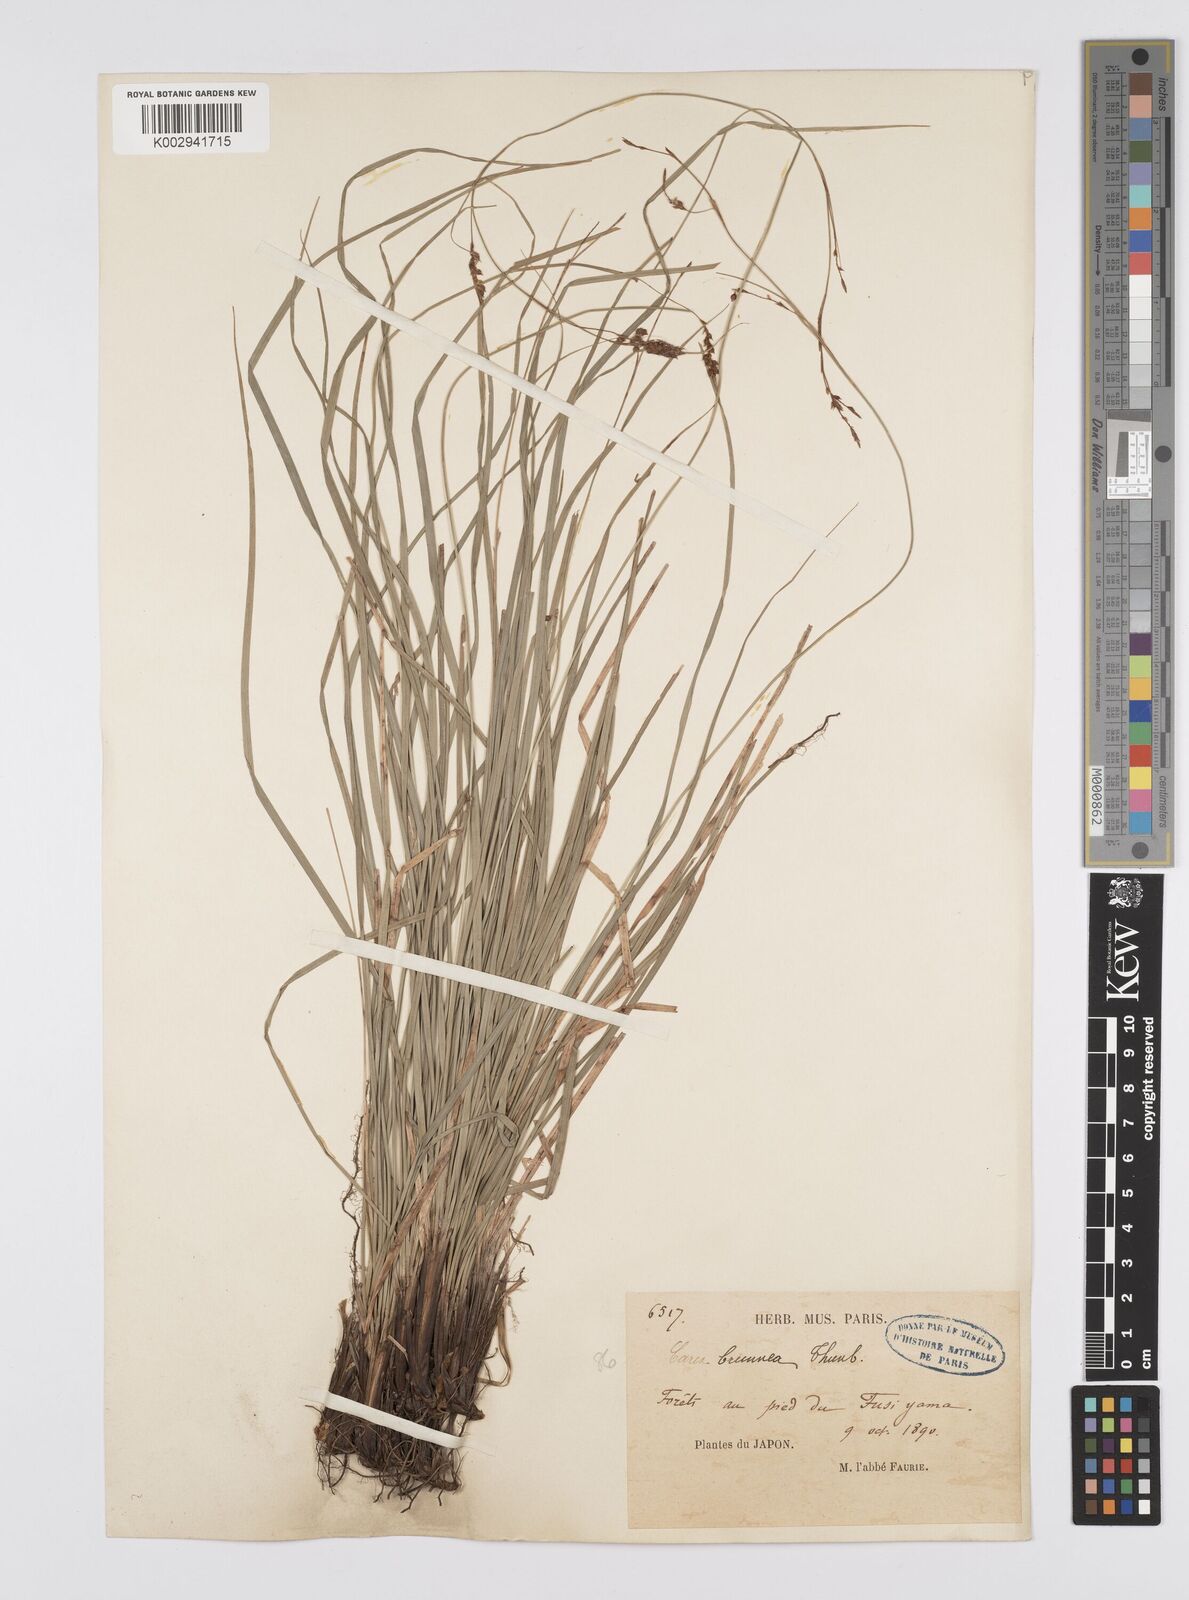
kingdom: Plantae
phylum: Tracheophyta
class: Liliopsida
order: Poales
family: Cyperaceae
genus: Carex
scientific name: Carex brunnea
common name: Greater brown sedge
